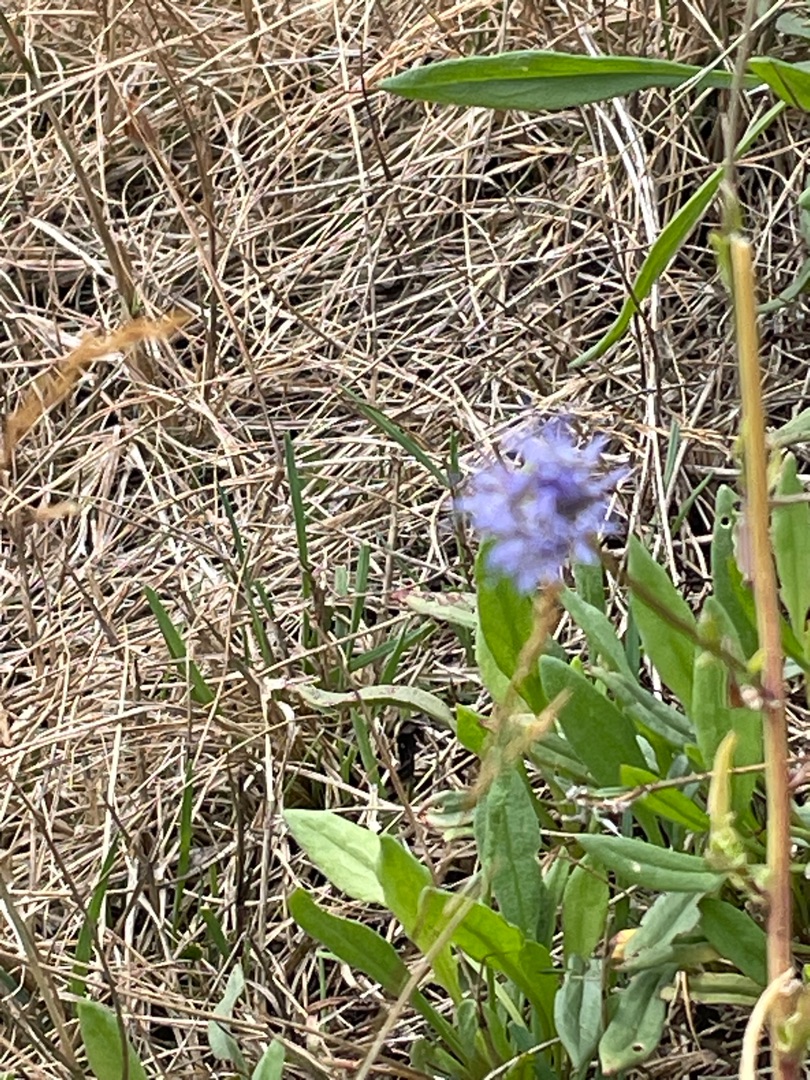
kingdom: Plantae
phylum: Tracheophyta
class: Magnoliopsida
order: Asterales
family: Campanulaceae
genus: Jasione
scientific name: Jasione montana
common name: Blåmunke
